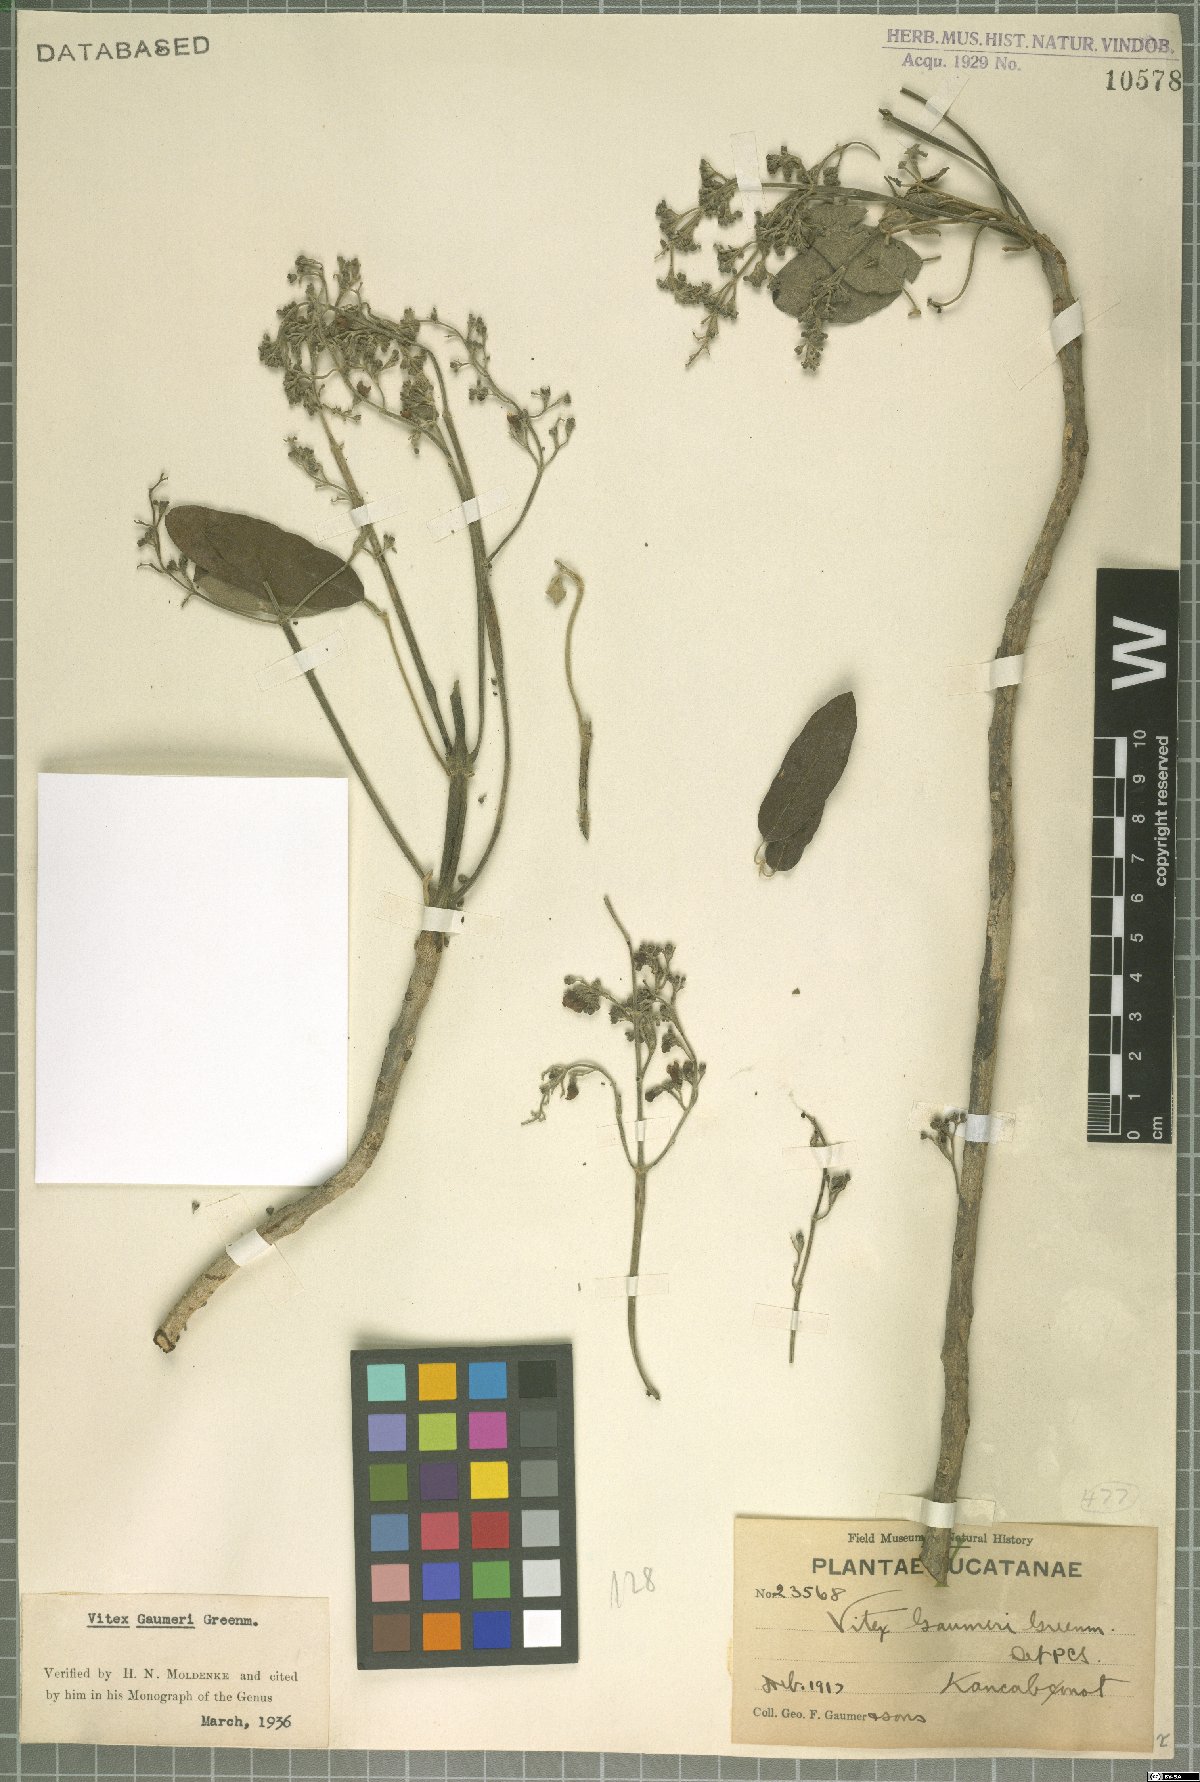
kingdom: Plantae
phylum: Tracheophyta
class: Magnoliopsida
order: Lamiales
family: Lamiaceae
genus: Vitex
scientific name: Vitex gaumeri
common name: Fiddlewood
